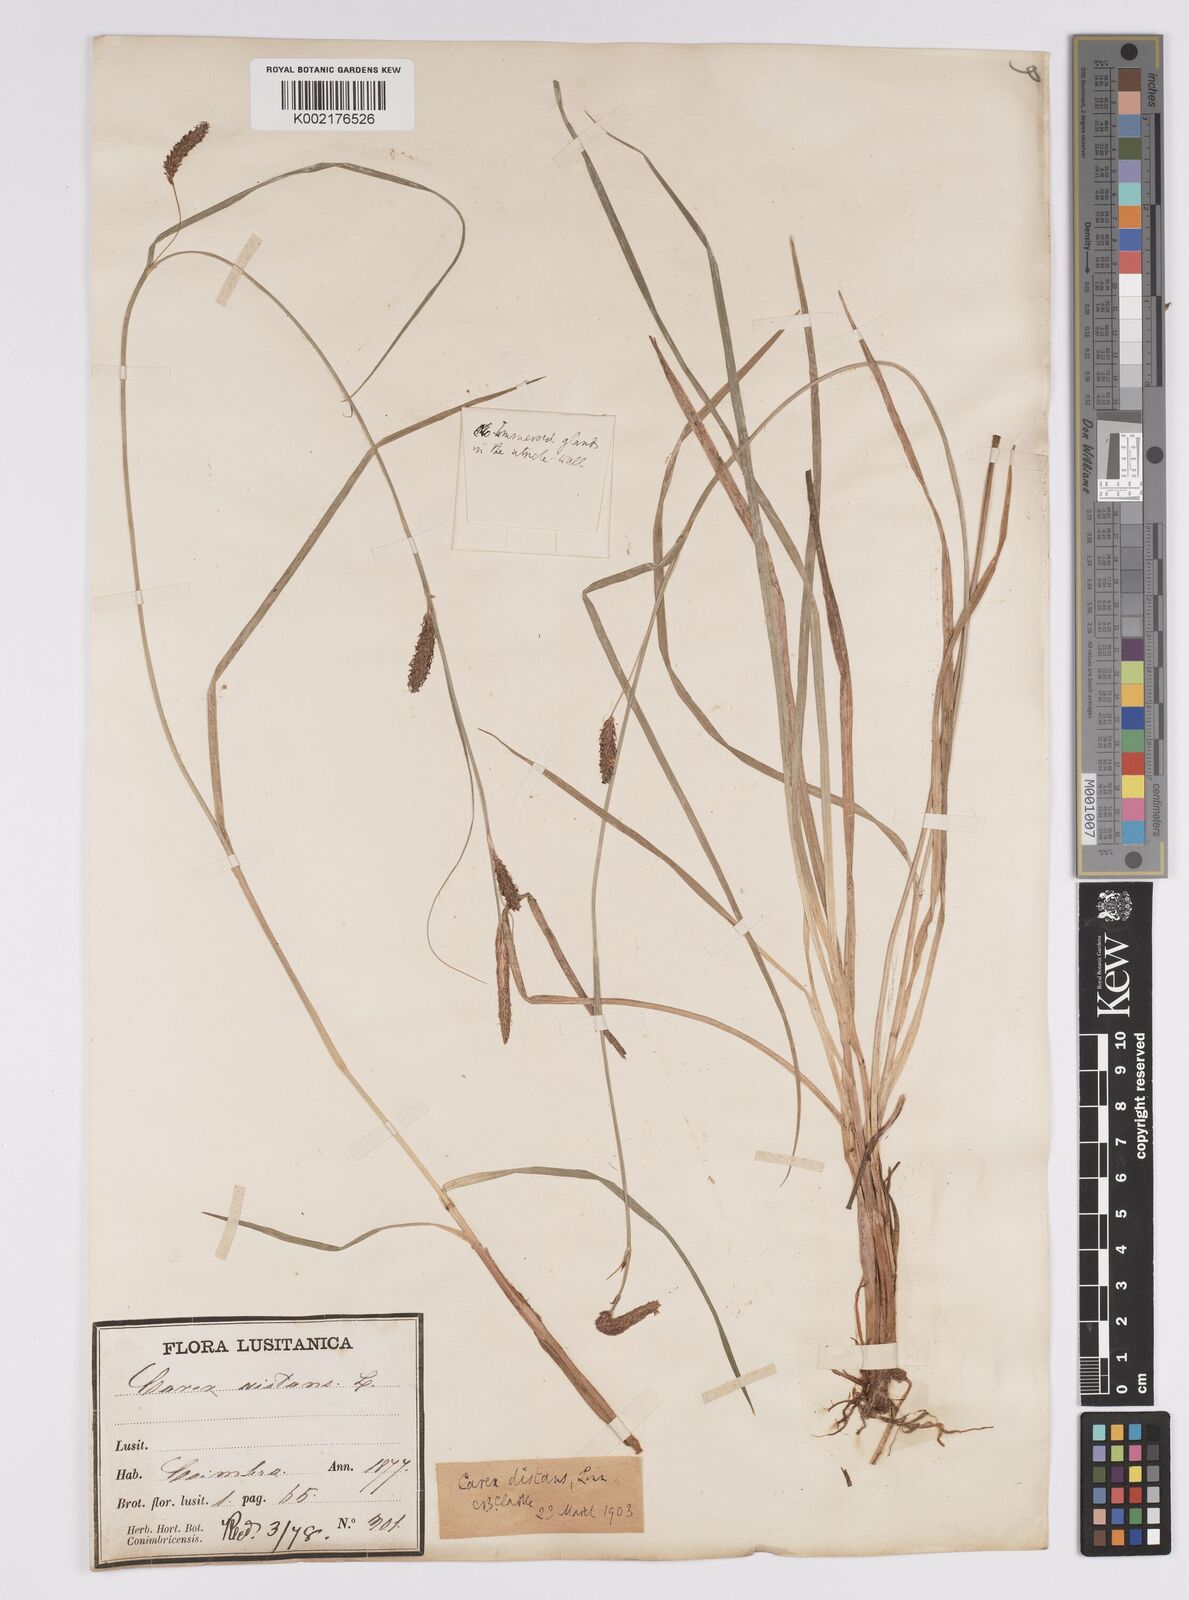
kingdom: Plantae
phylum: Tracheophyta
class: Liliopsida
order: Poales
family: Cyperaceae
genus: Carex
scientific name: Carex distans
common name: Distant sedge
